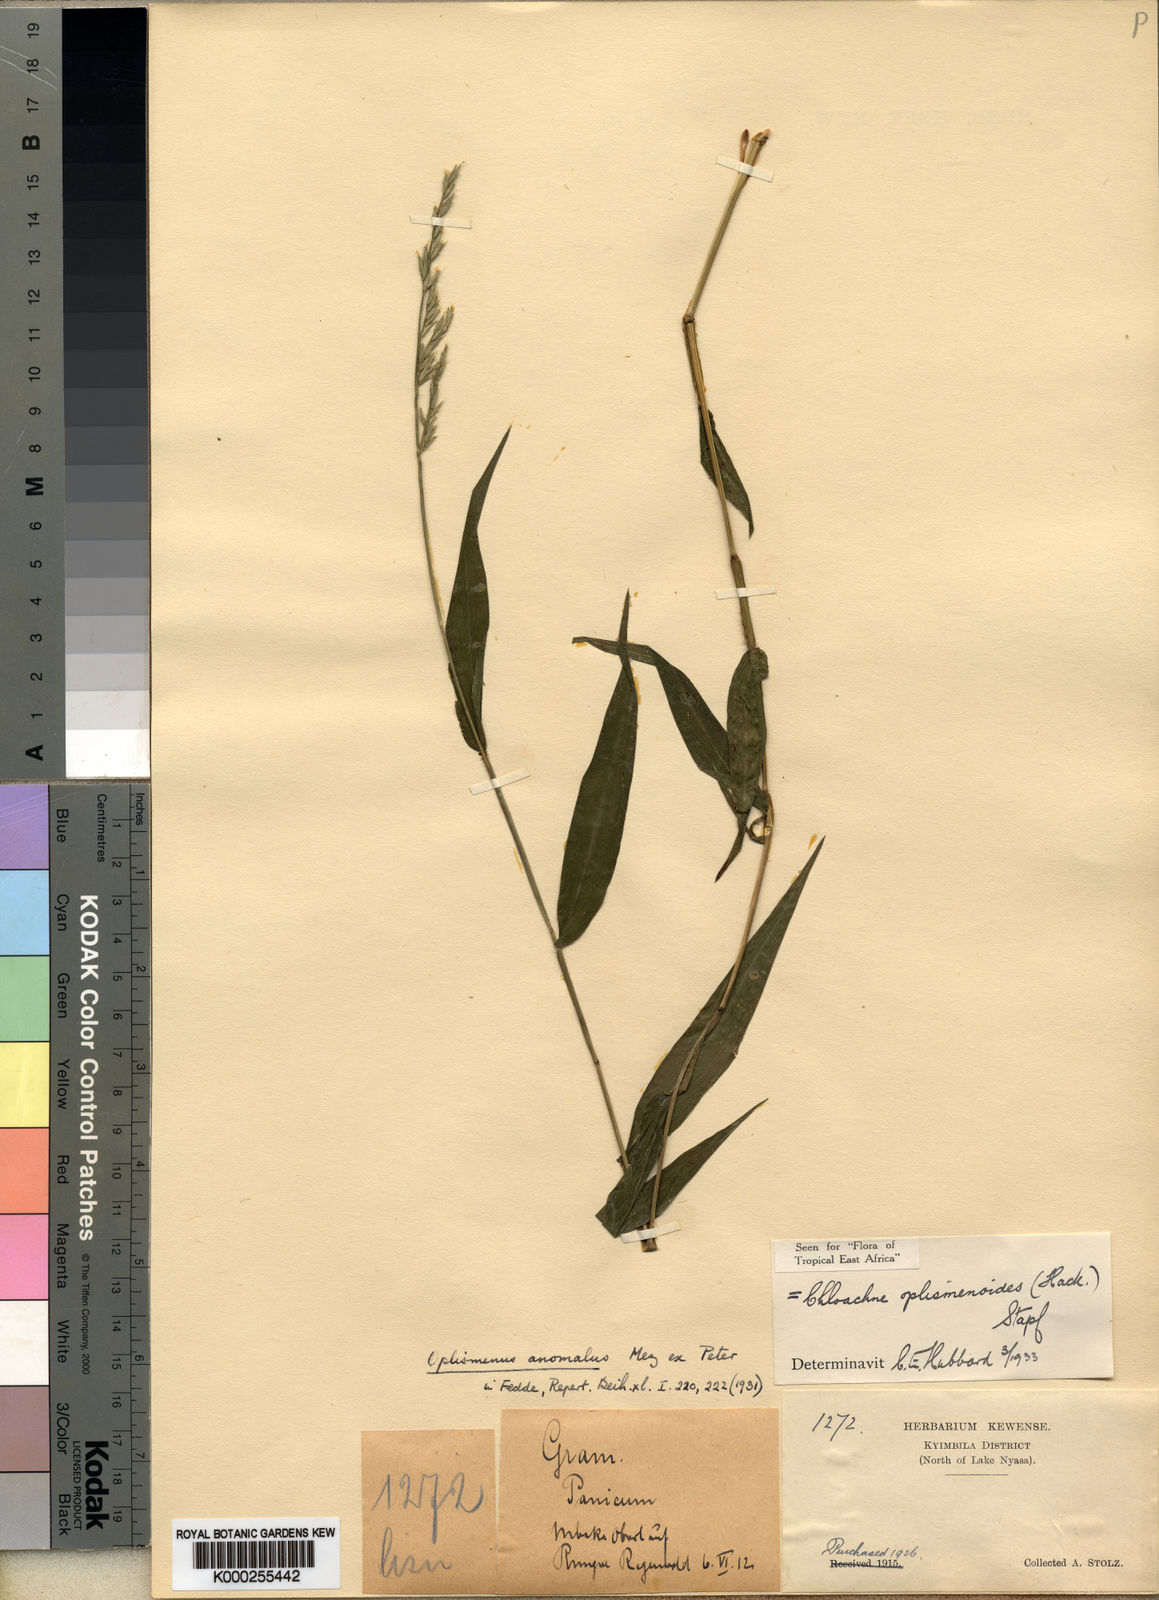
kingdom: Plantae
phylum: Tracheophyta
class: Liliopsida
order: Poales
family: Poaceae
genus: Poecilostachys
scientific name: Poecilostachys oplismenoides
